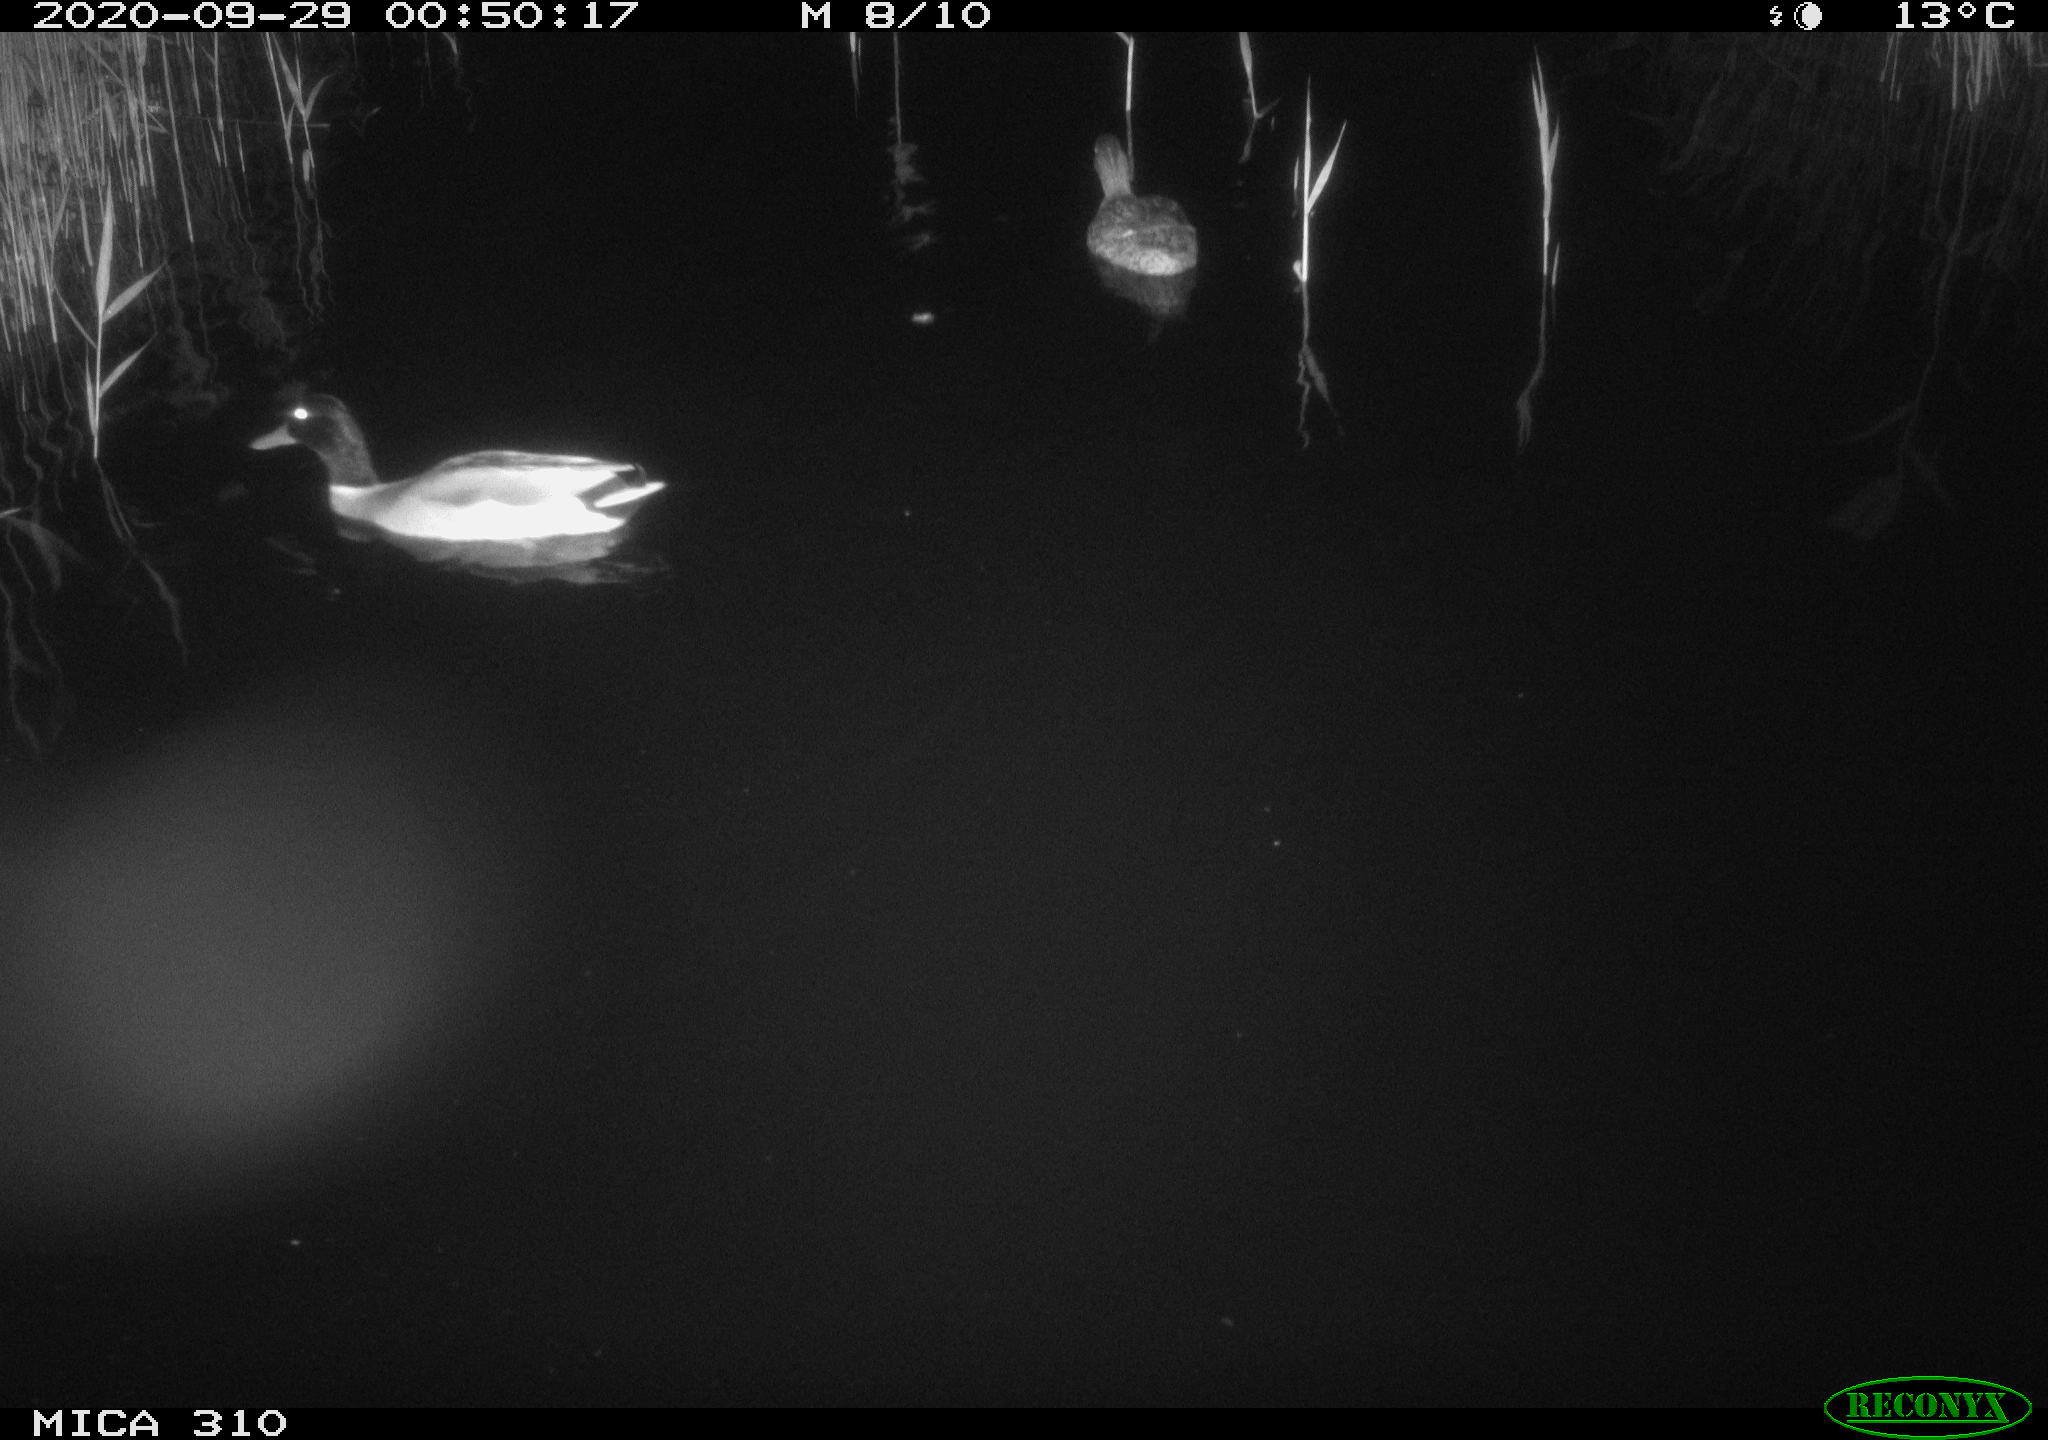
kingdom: Animalia
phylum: Chordata
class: Aves
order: Anseriformes
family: Anatidae
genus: Anas
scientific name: Anas platyrhynchos
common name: Mallard
